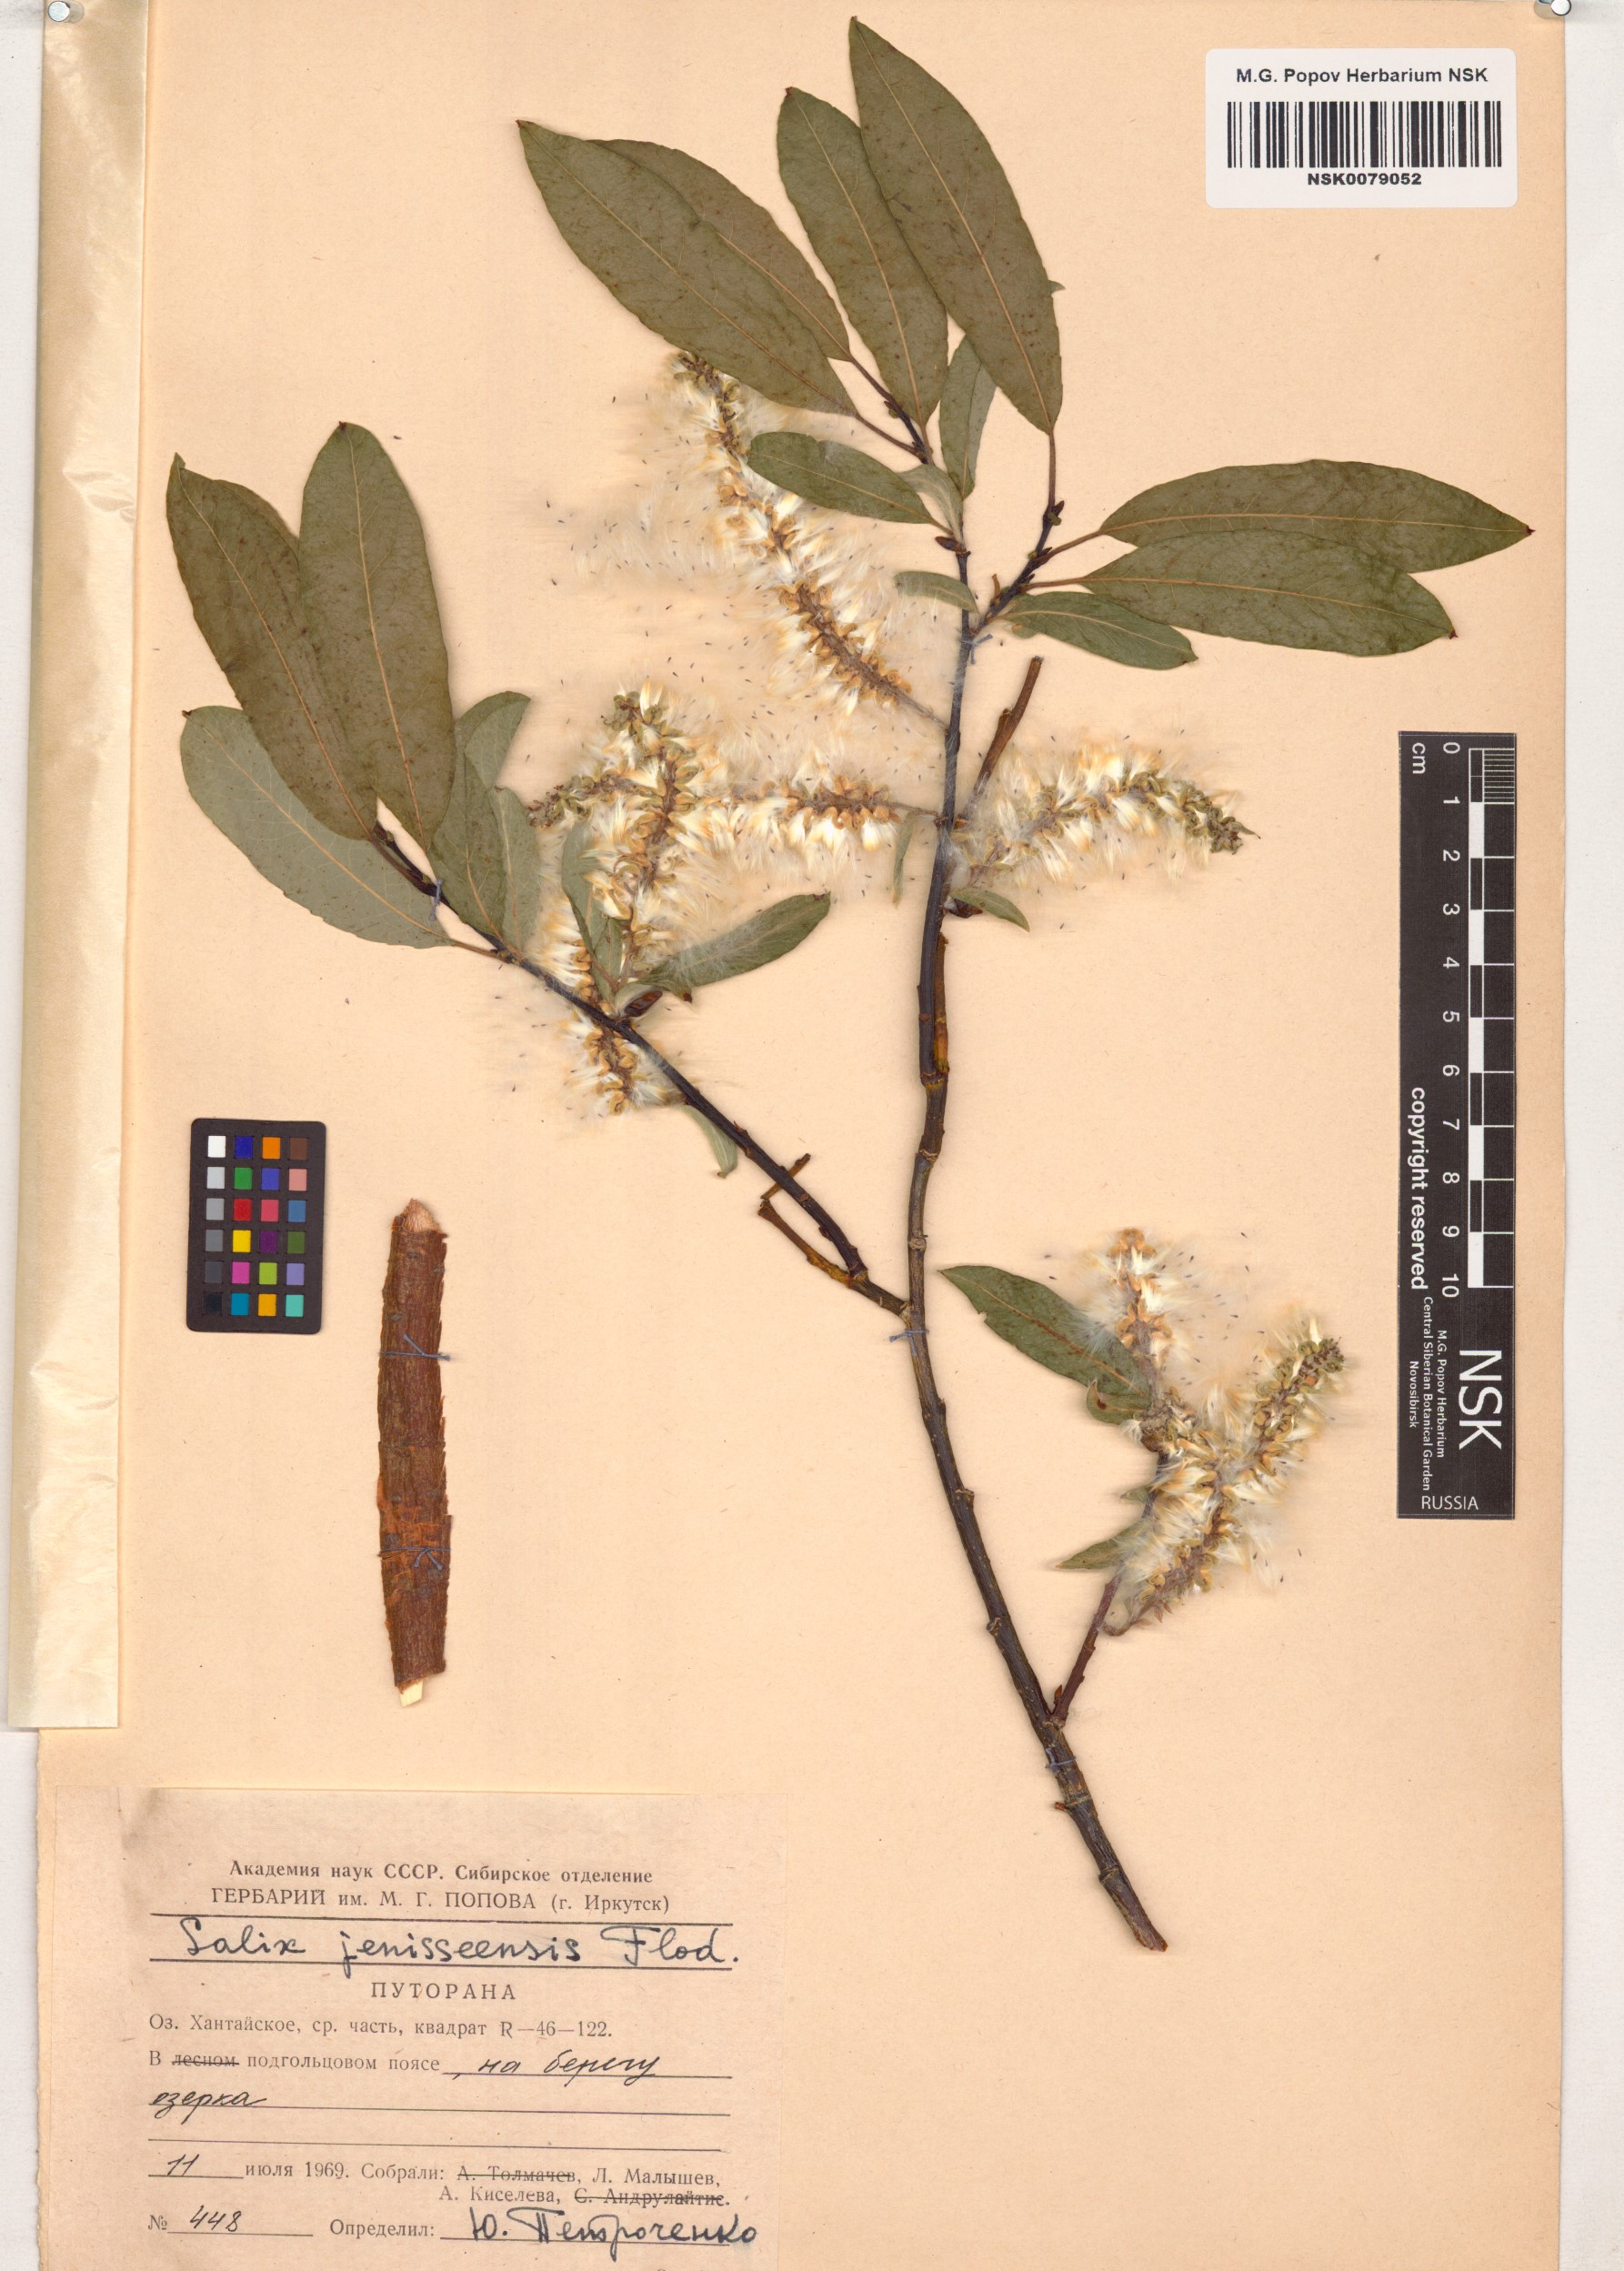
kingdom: Plantae
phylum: Tracheophyta
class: Magnoliopsida
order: Malpighiales
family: Salicaceae
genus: Salix
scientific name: Salix jenisseensis
